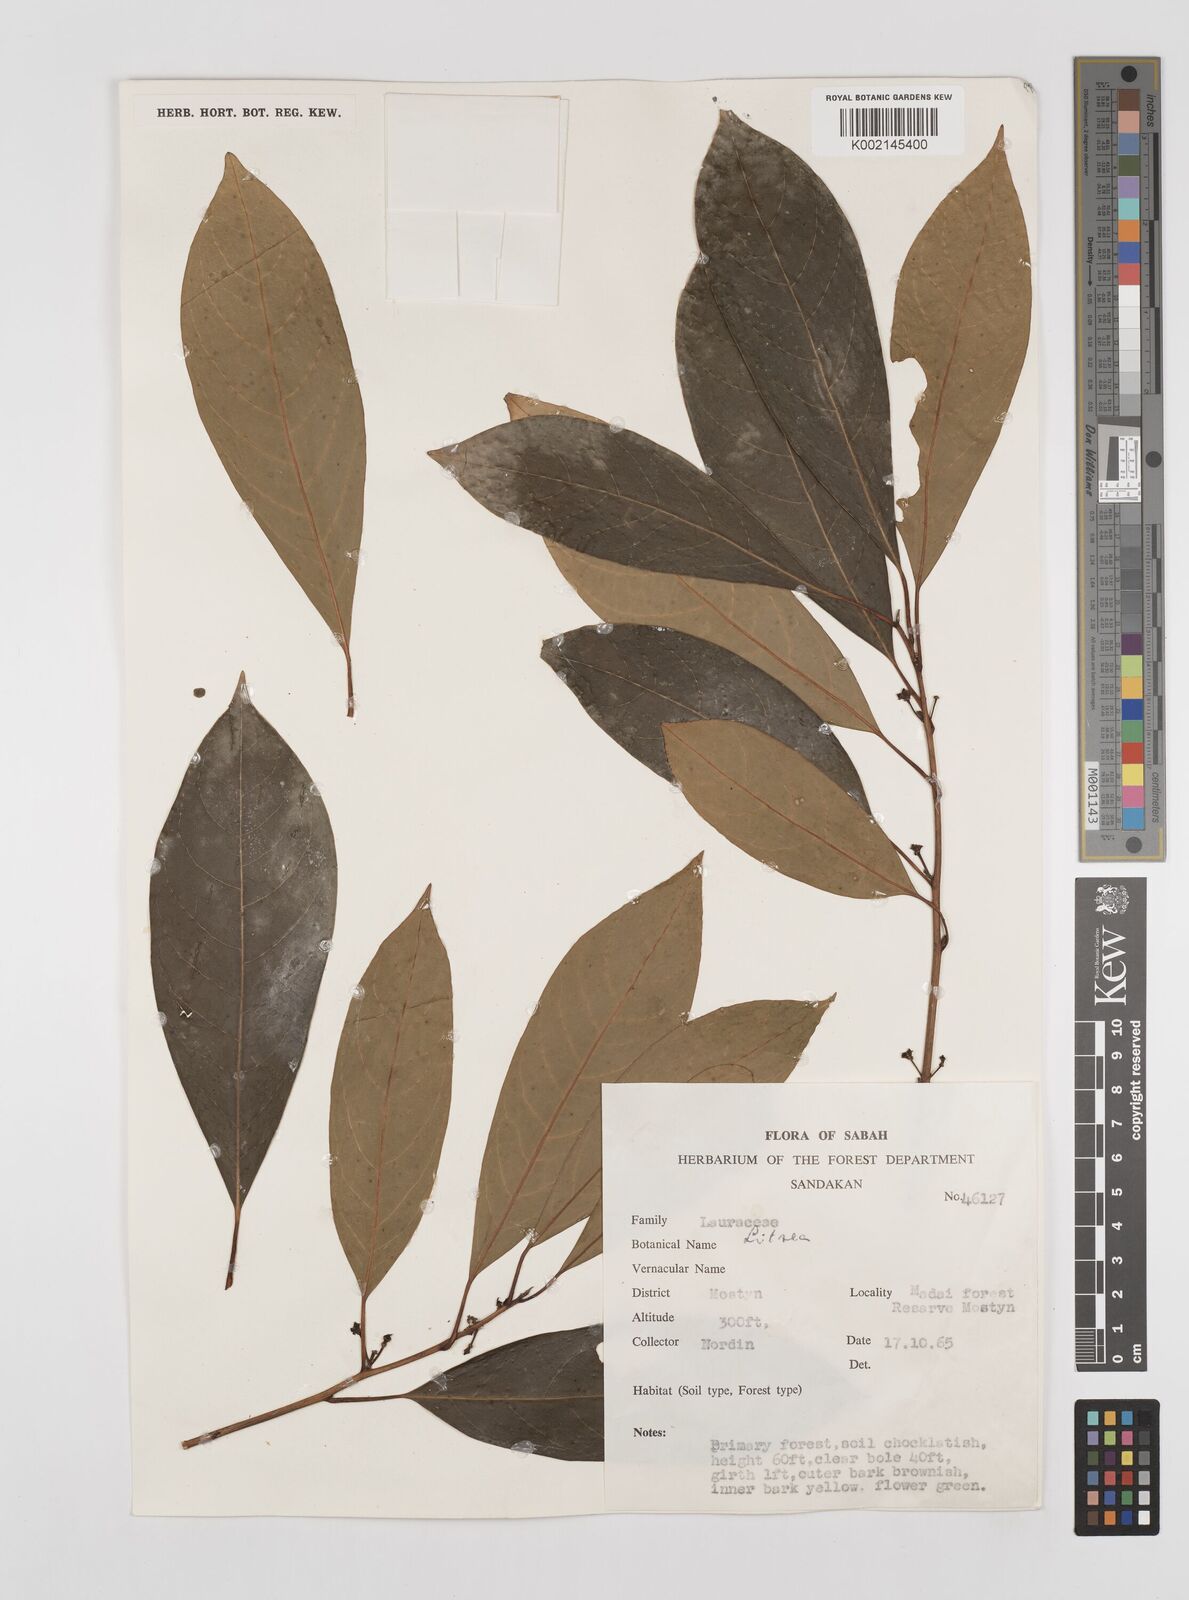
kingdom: Plantae
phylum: Tracheophyta
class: Magnoliopsida
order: Laurales
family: Lauraceae
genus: Litsea
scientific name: Litsea
